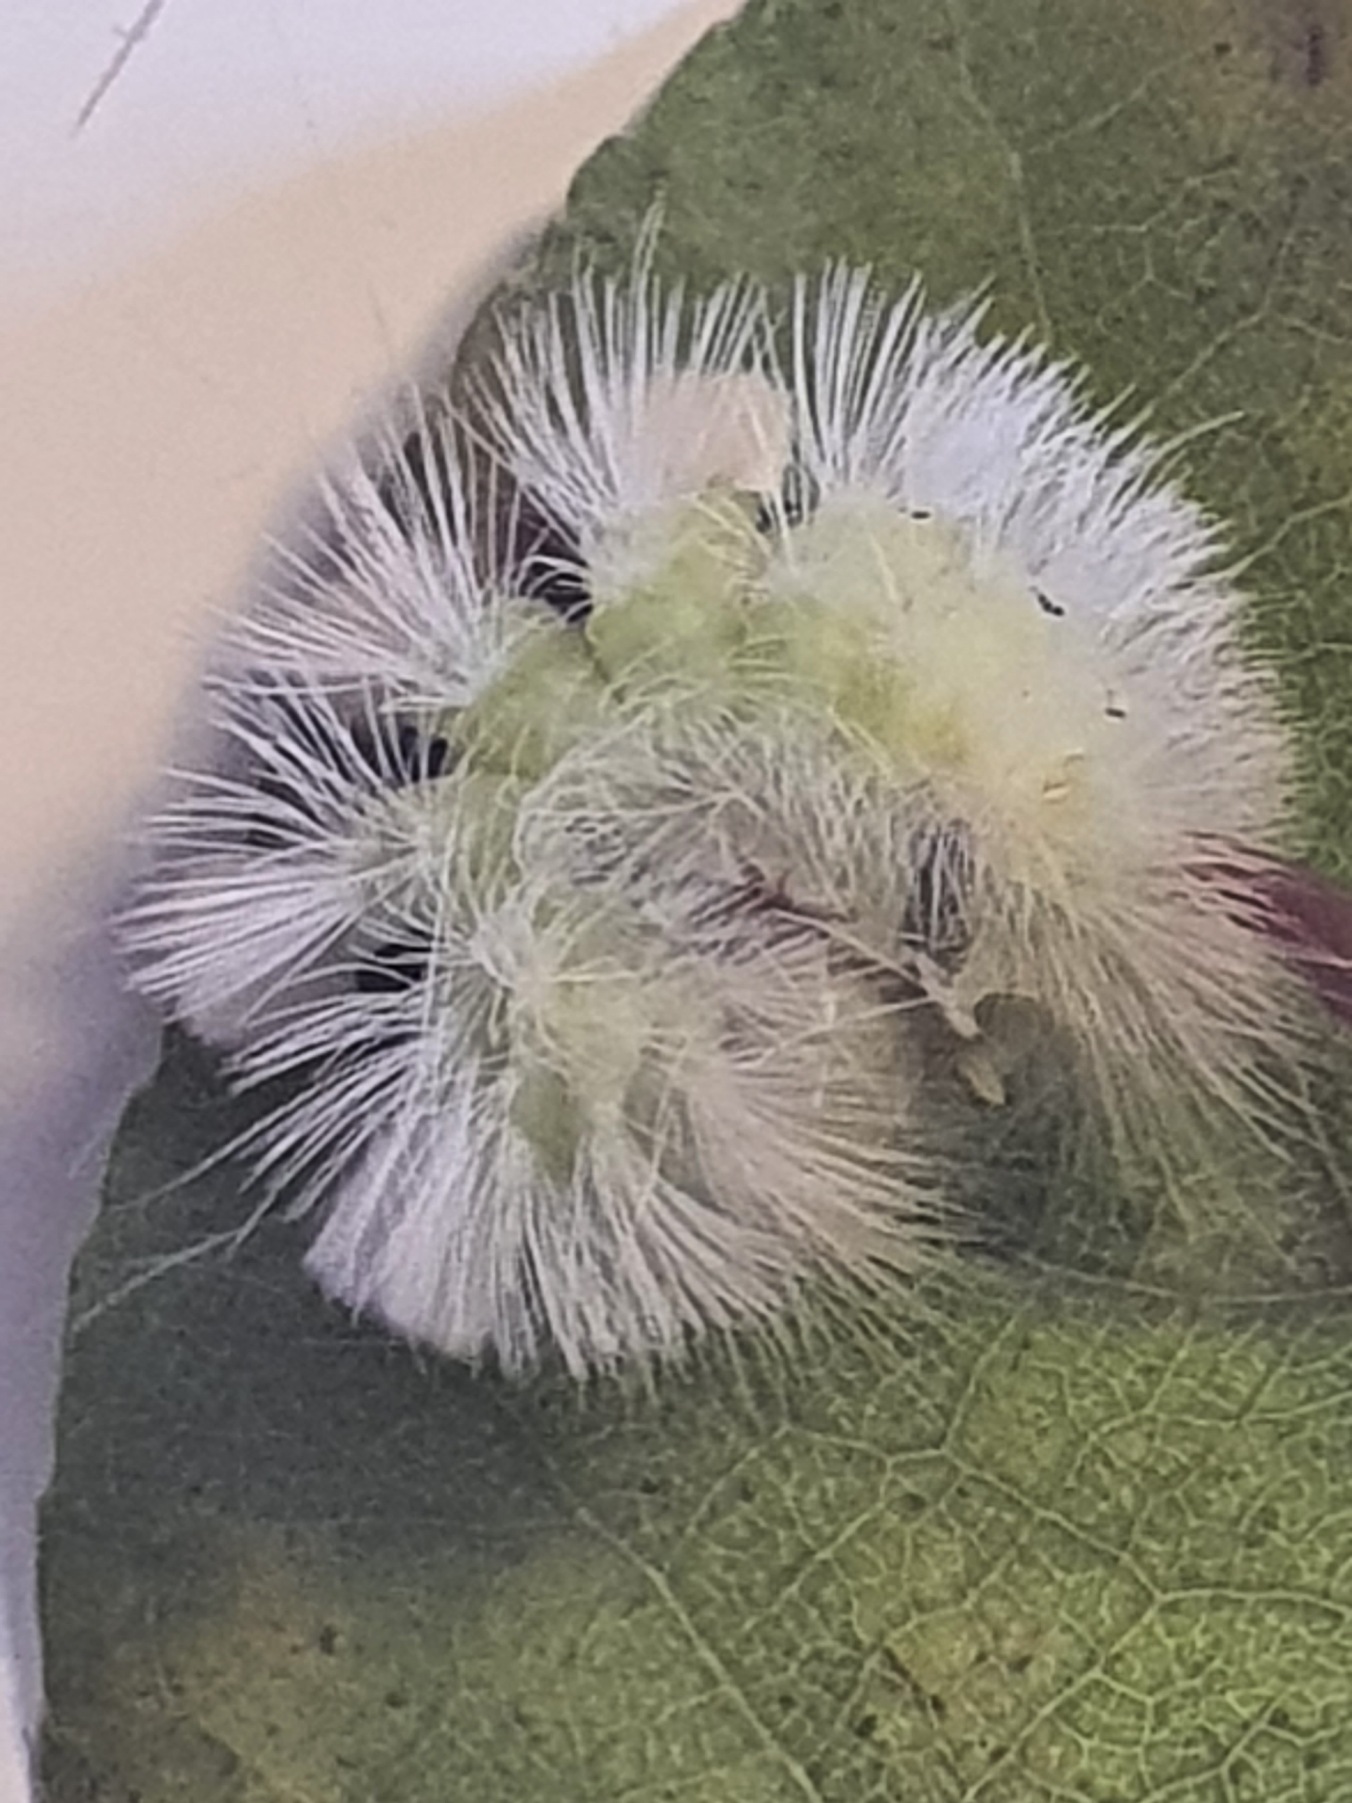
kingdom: Animalia
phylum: Arthropoda
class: Insecta
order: Lepidoptera
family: Erebidae
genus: Calliteara
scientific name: Calliteara pudibunda
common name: Bøgenonne
